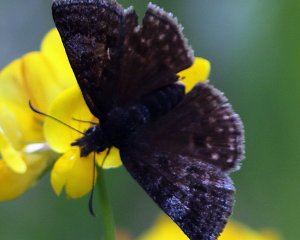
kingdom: Animalia
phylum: Arthropoda
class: Insecta
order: Lepidoptera
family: Hesperiidae
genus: Erynnis
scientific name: Erynnis icelus
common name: Dreamy Duskywing
